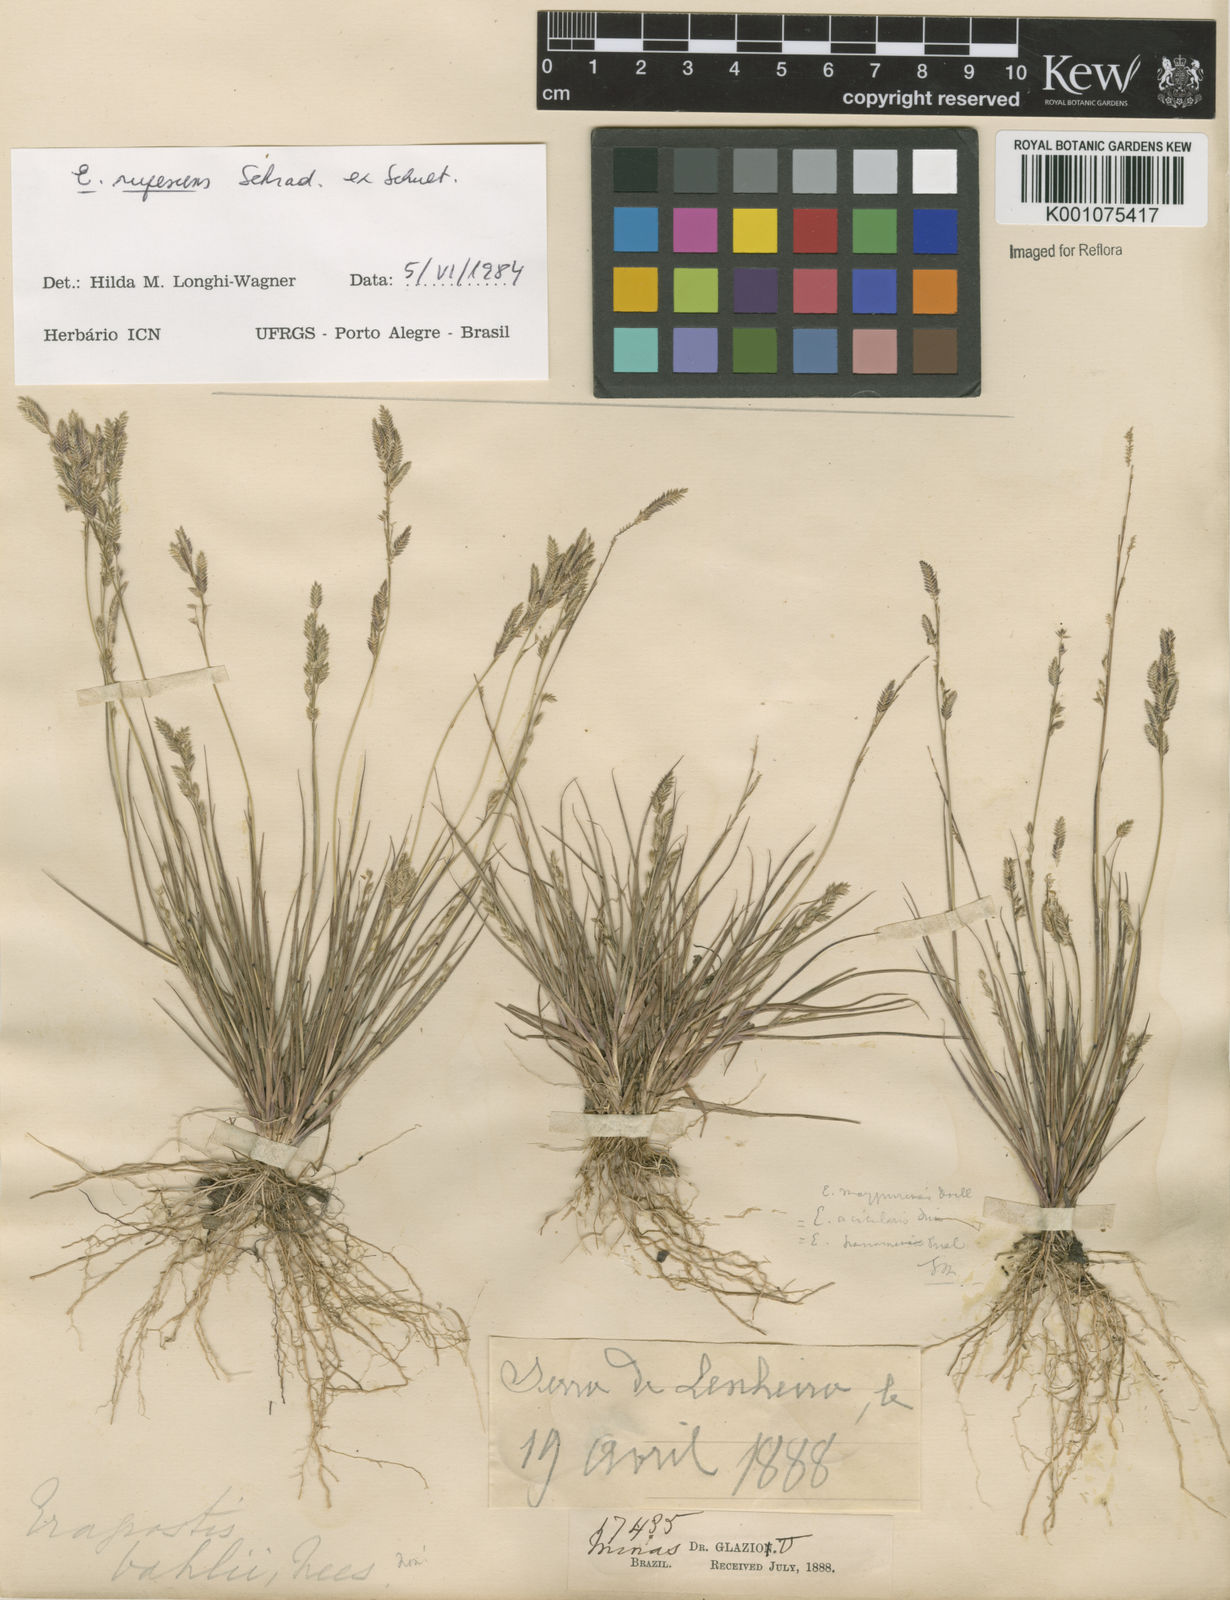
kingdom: Plantae
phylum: Tracheophyta
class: Liliopsida
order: Poales
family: Poaceae
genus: Eragrostis
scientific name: Eragrostis rufescens
